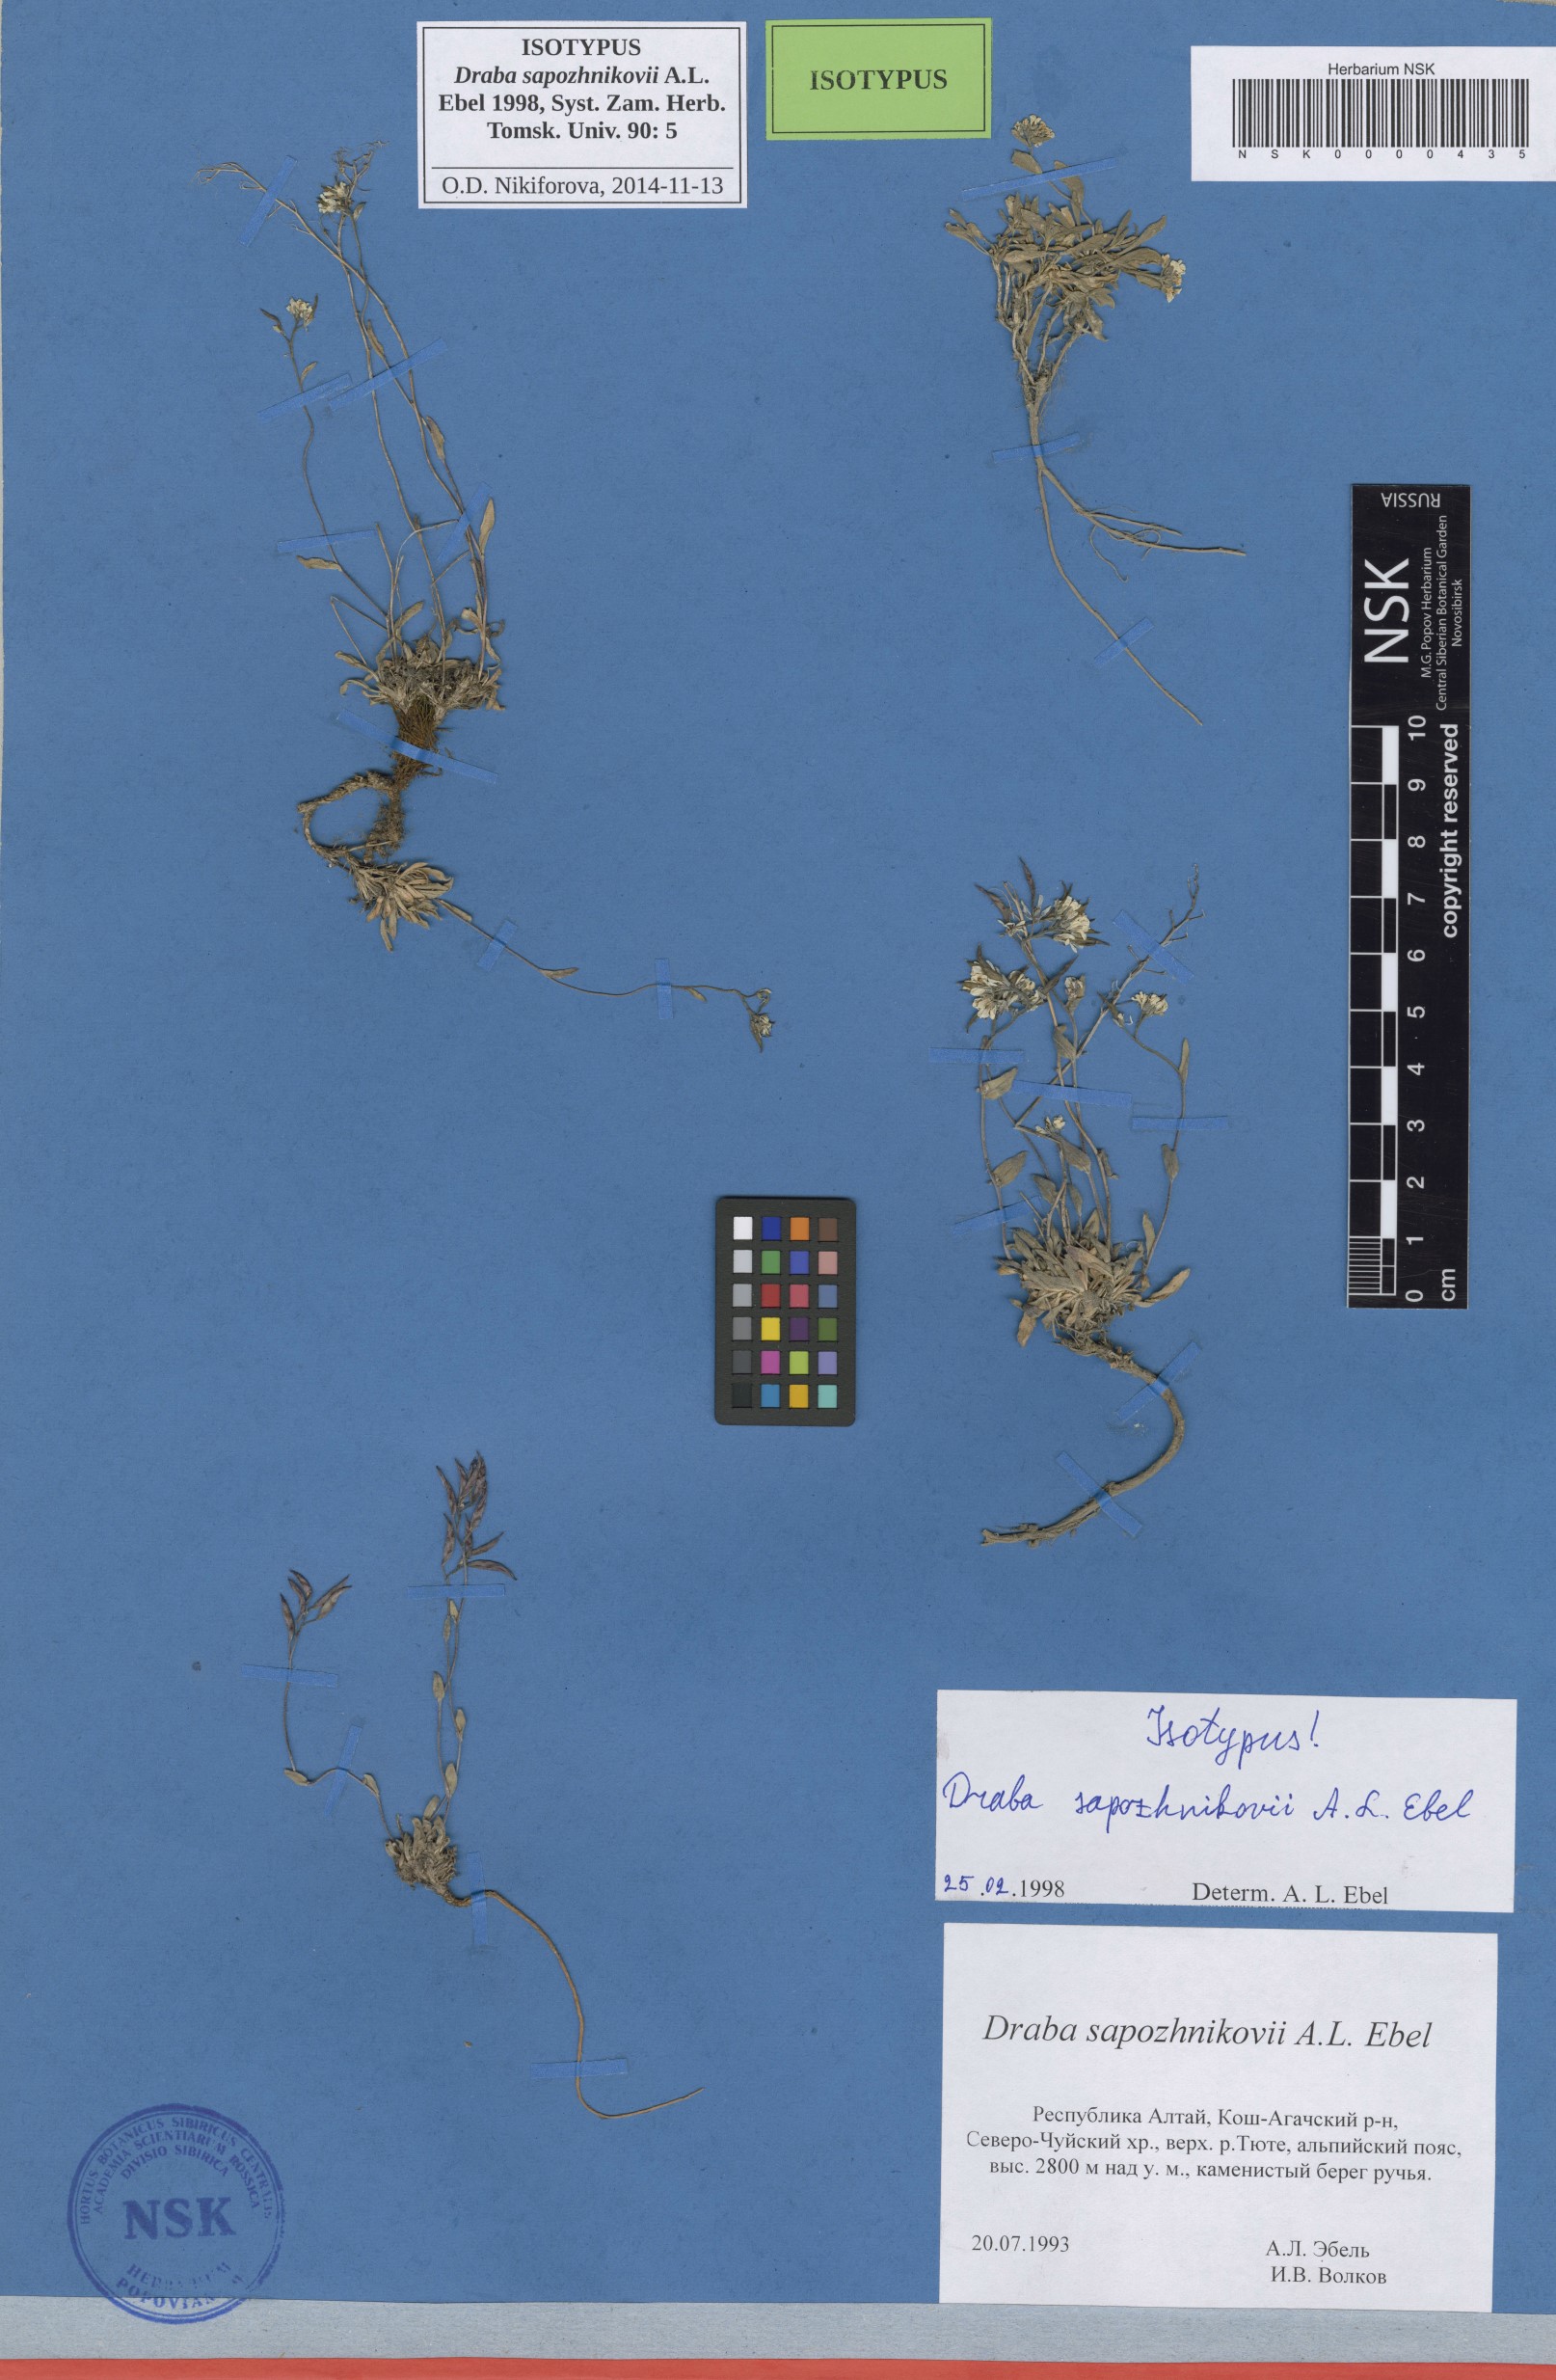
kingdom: Plantae
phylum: Tracheophyta
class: Magnoliopsida
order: Brassicales
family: Brassicaceae
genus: Draba
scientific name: Draba sapozhnikovii
